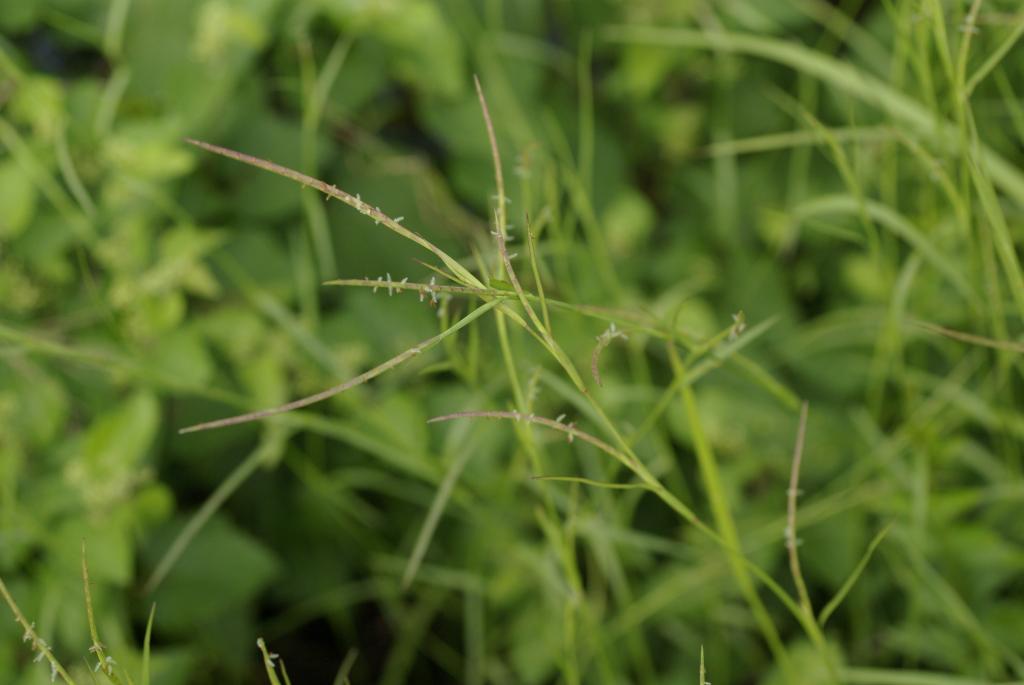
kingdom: Plantae
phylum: Tracheophyta
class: Liliopsida
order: Poales
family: Poaceae
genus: Hemarthria
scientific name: Hemarthria compressa
